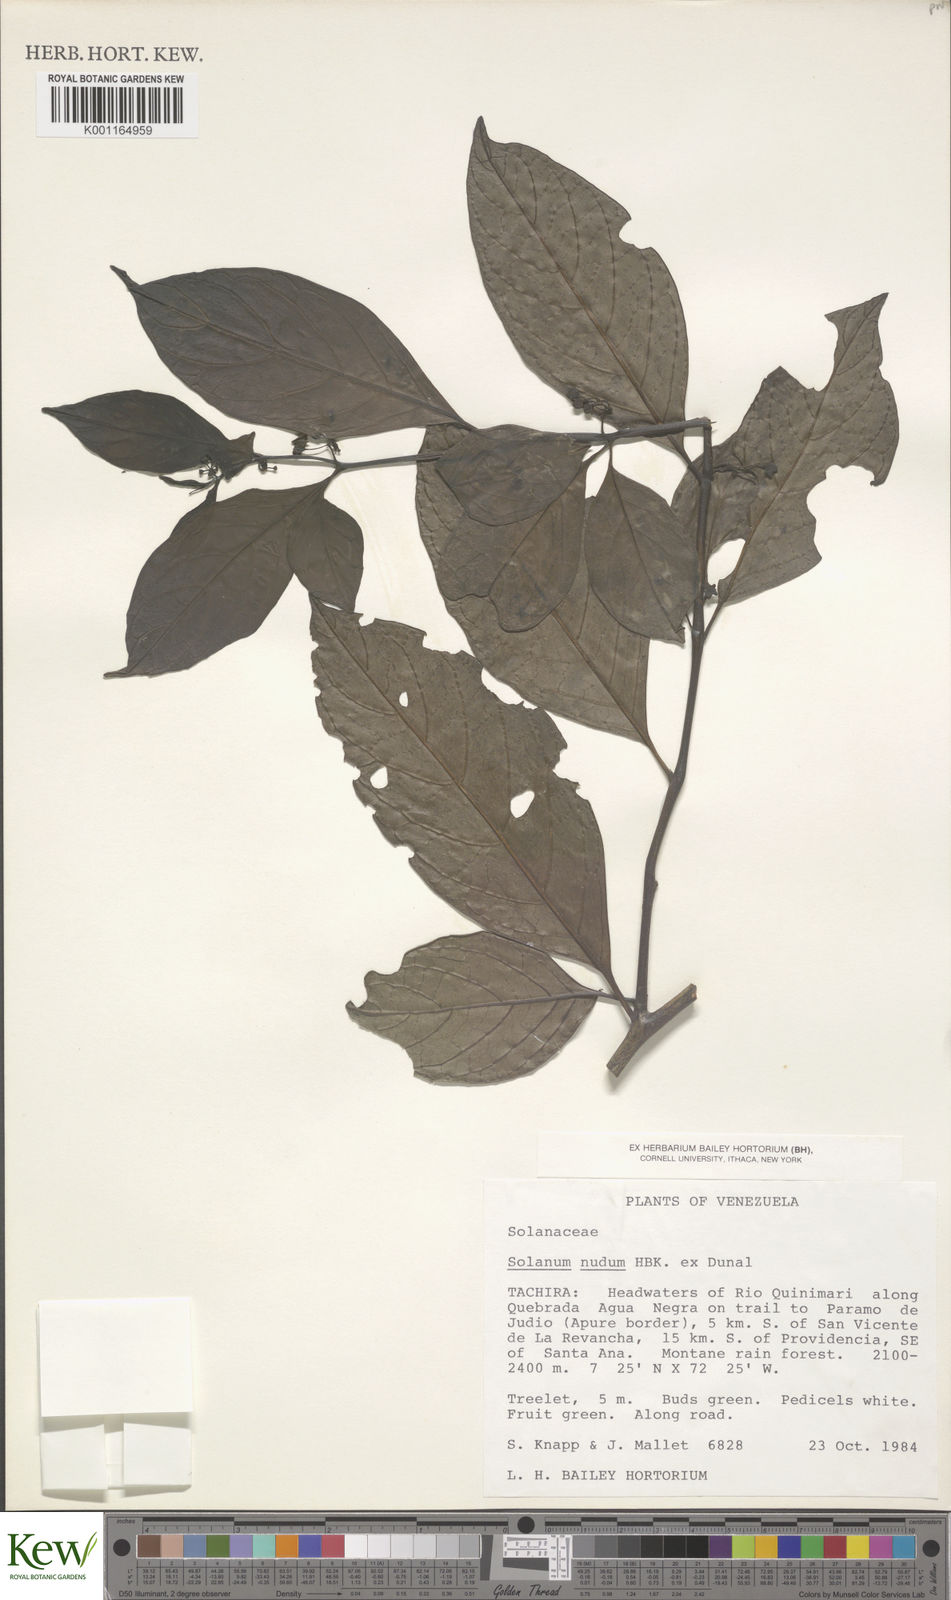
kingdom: Plantae
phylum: Tracheophyta
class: Magnoliopsida
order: Solanales
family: Solanaceae
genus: Solanum
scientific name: Solanum nudum
